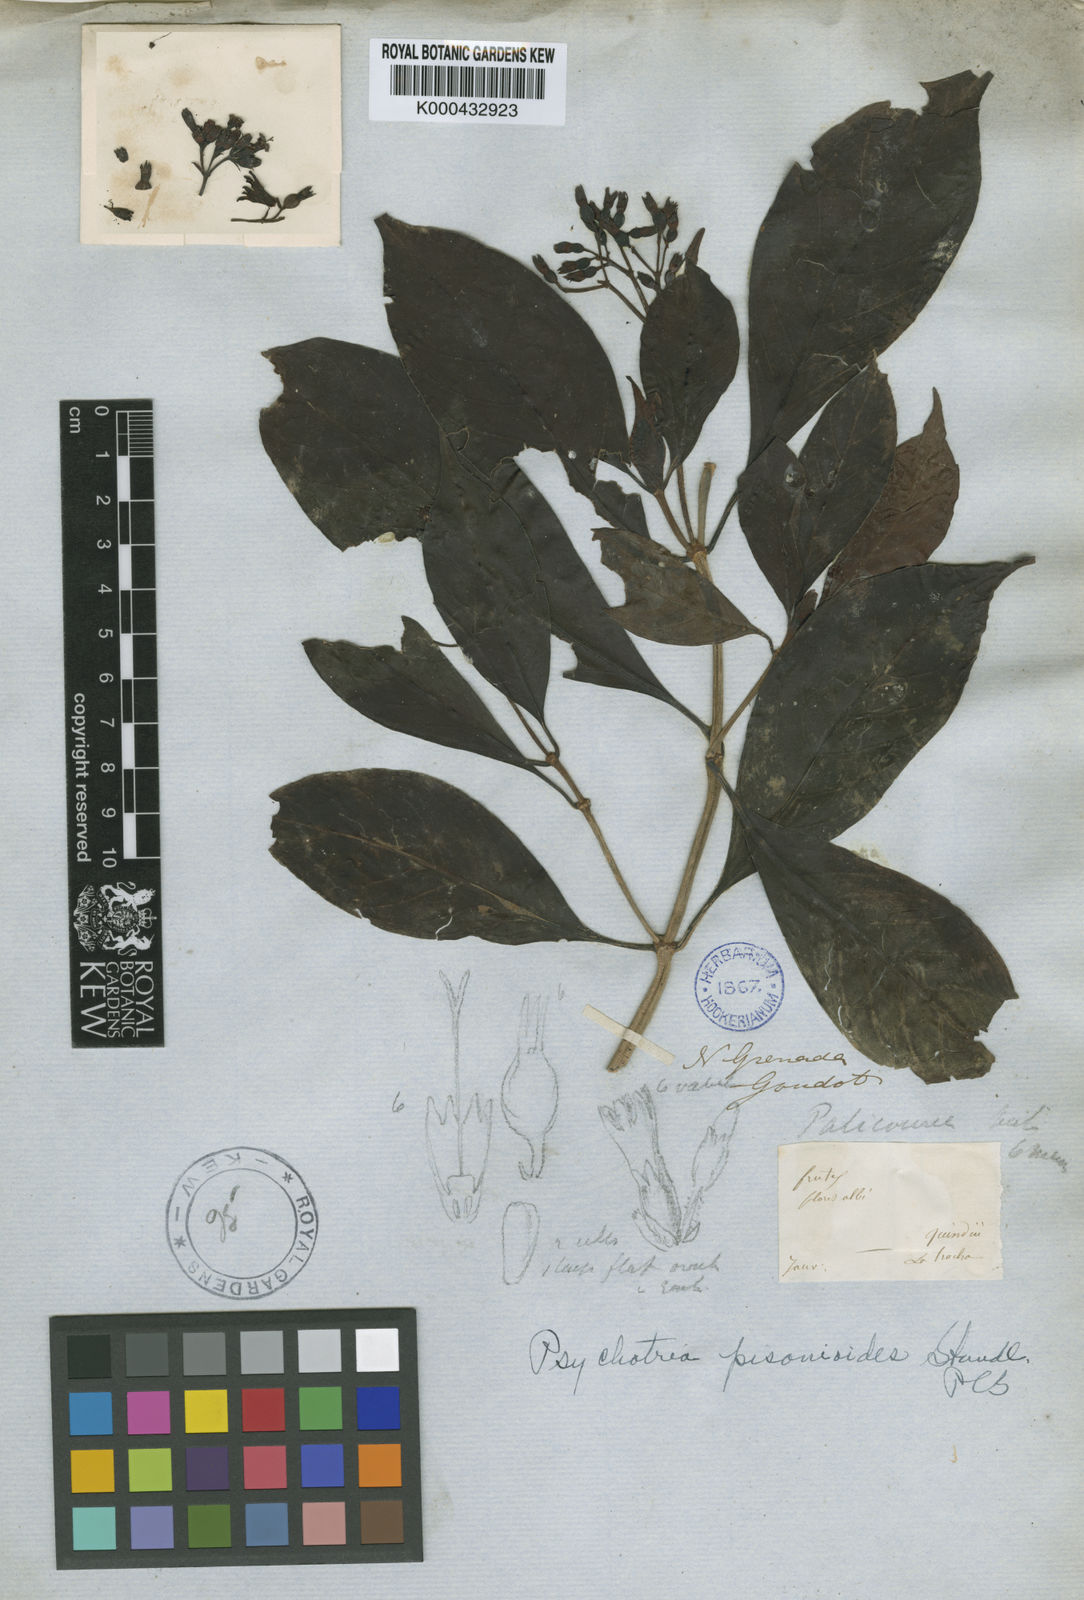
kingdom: Plantae
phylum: Tracheophyta
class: Magnoliopsida
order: Gentianales
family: Rubiaceae
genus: Psychotria
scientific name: Psychotria pisonioides
